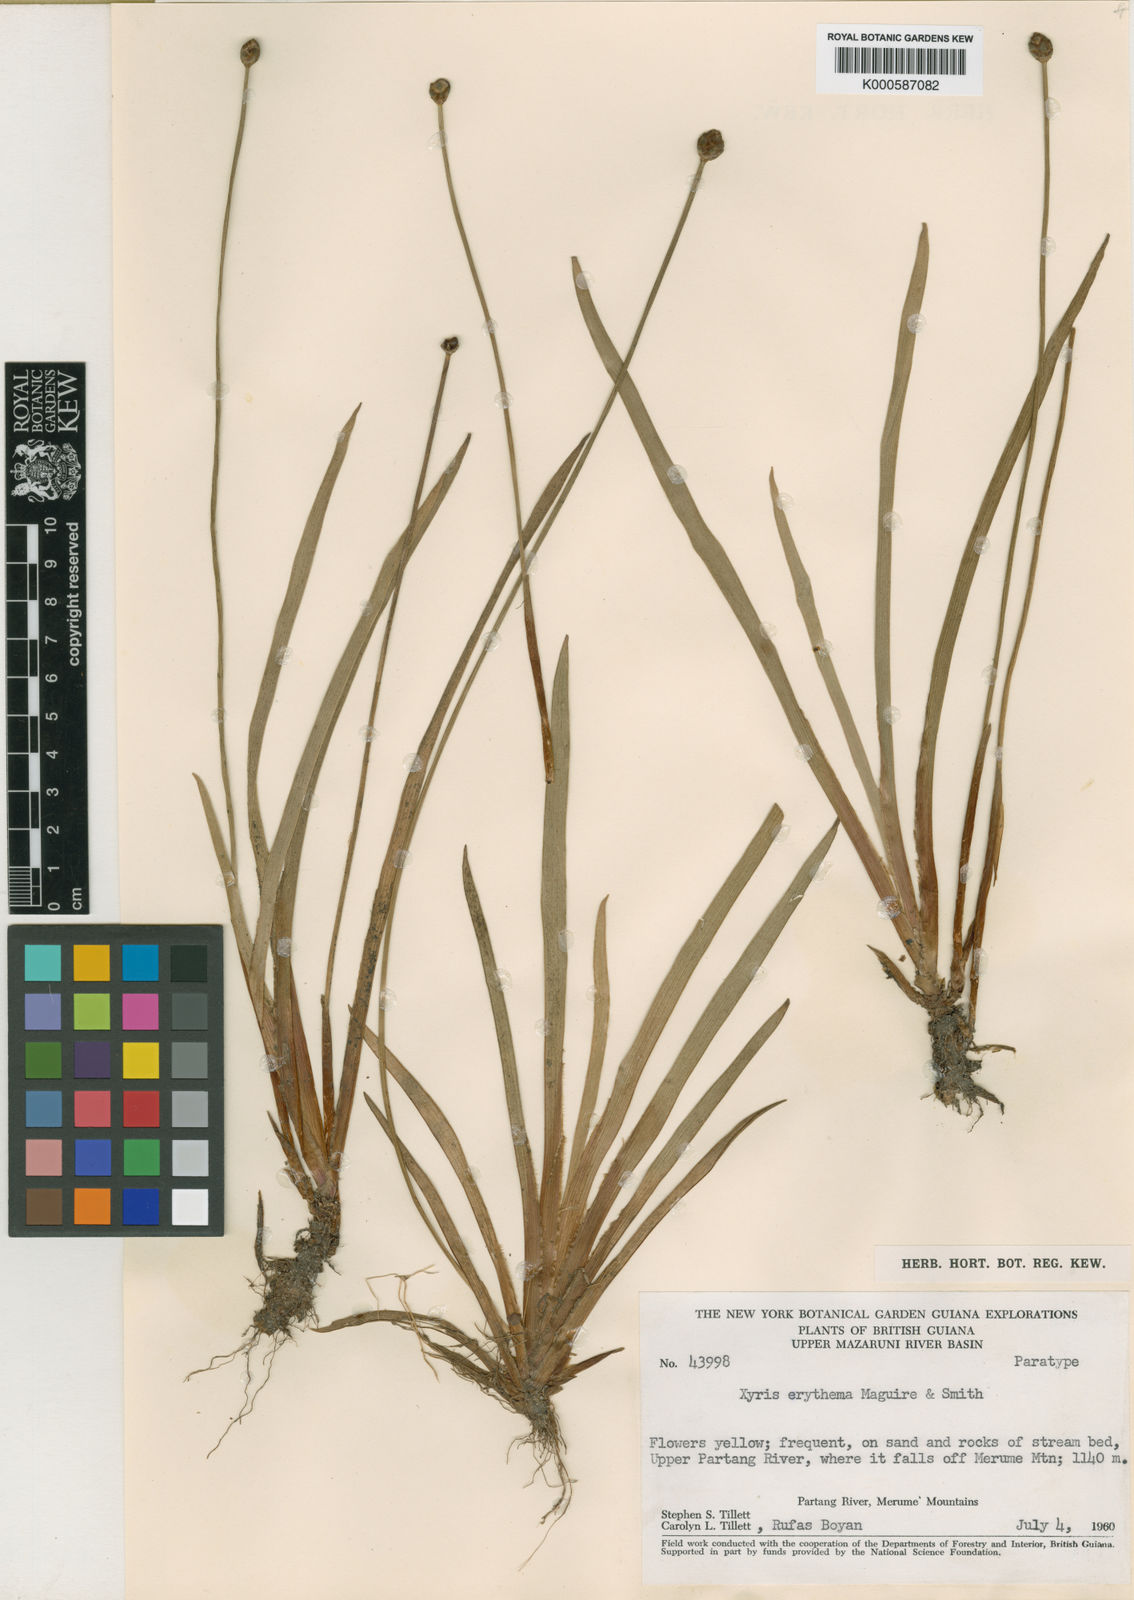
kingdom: Plantae
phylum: Tracheophyta
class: Liliopsida
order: Poales
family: Xyridaceae
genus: Xyris
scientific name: Xyris fallax
